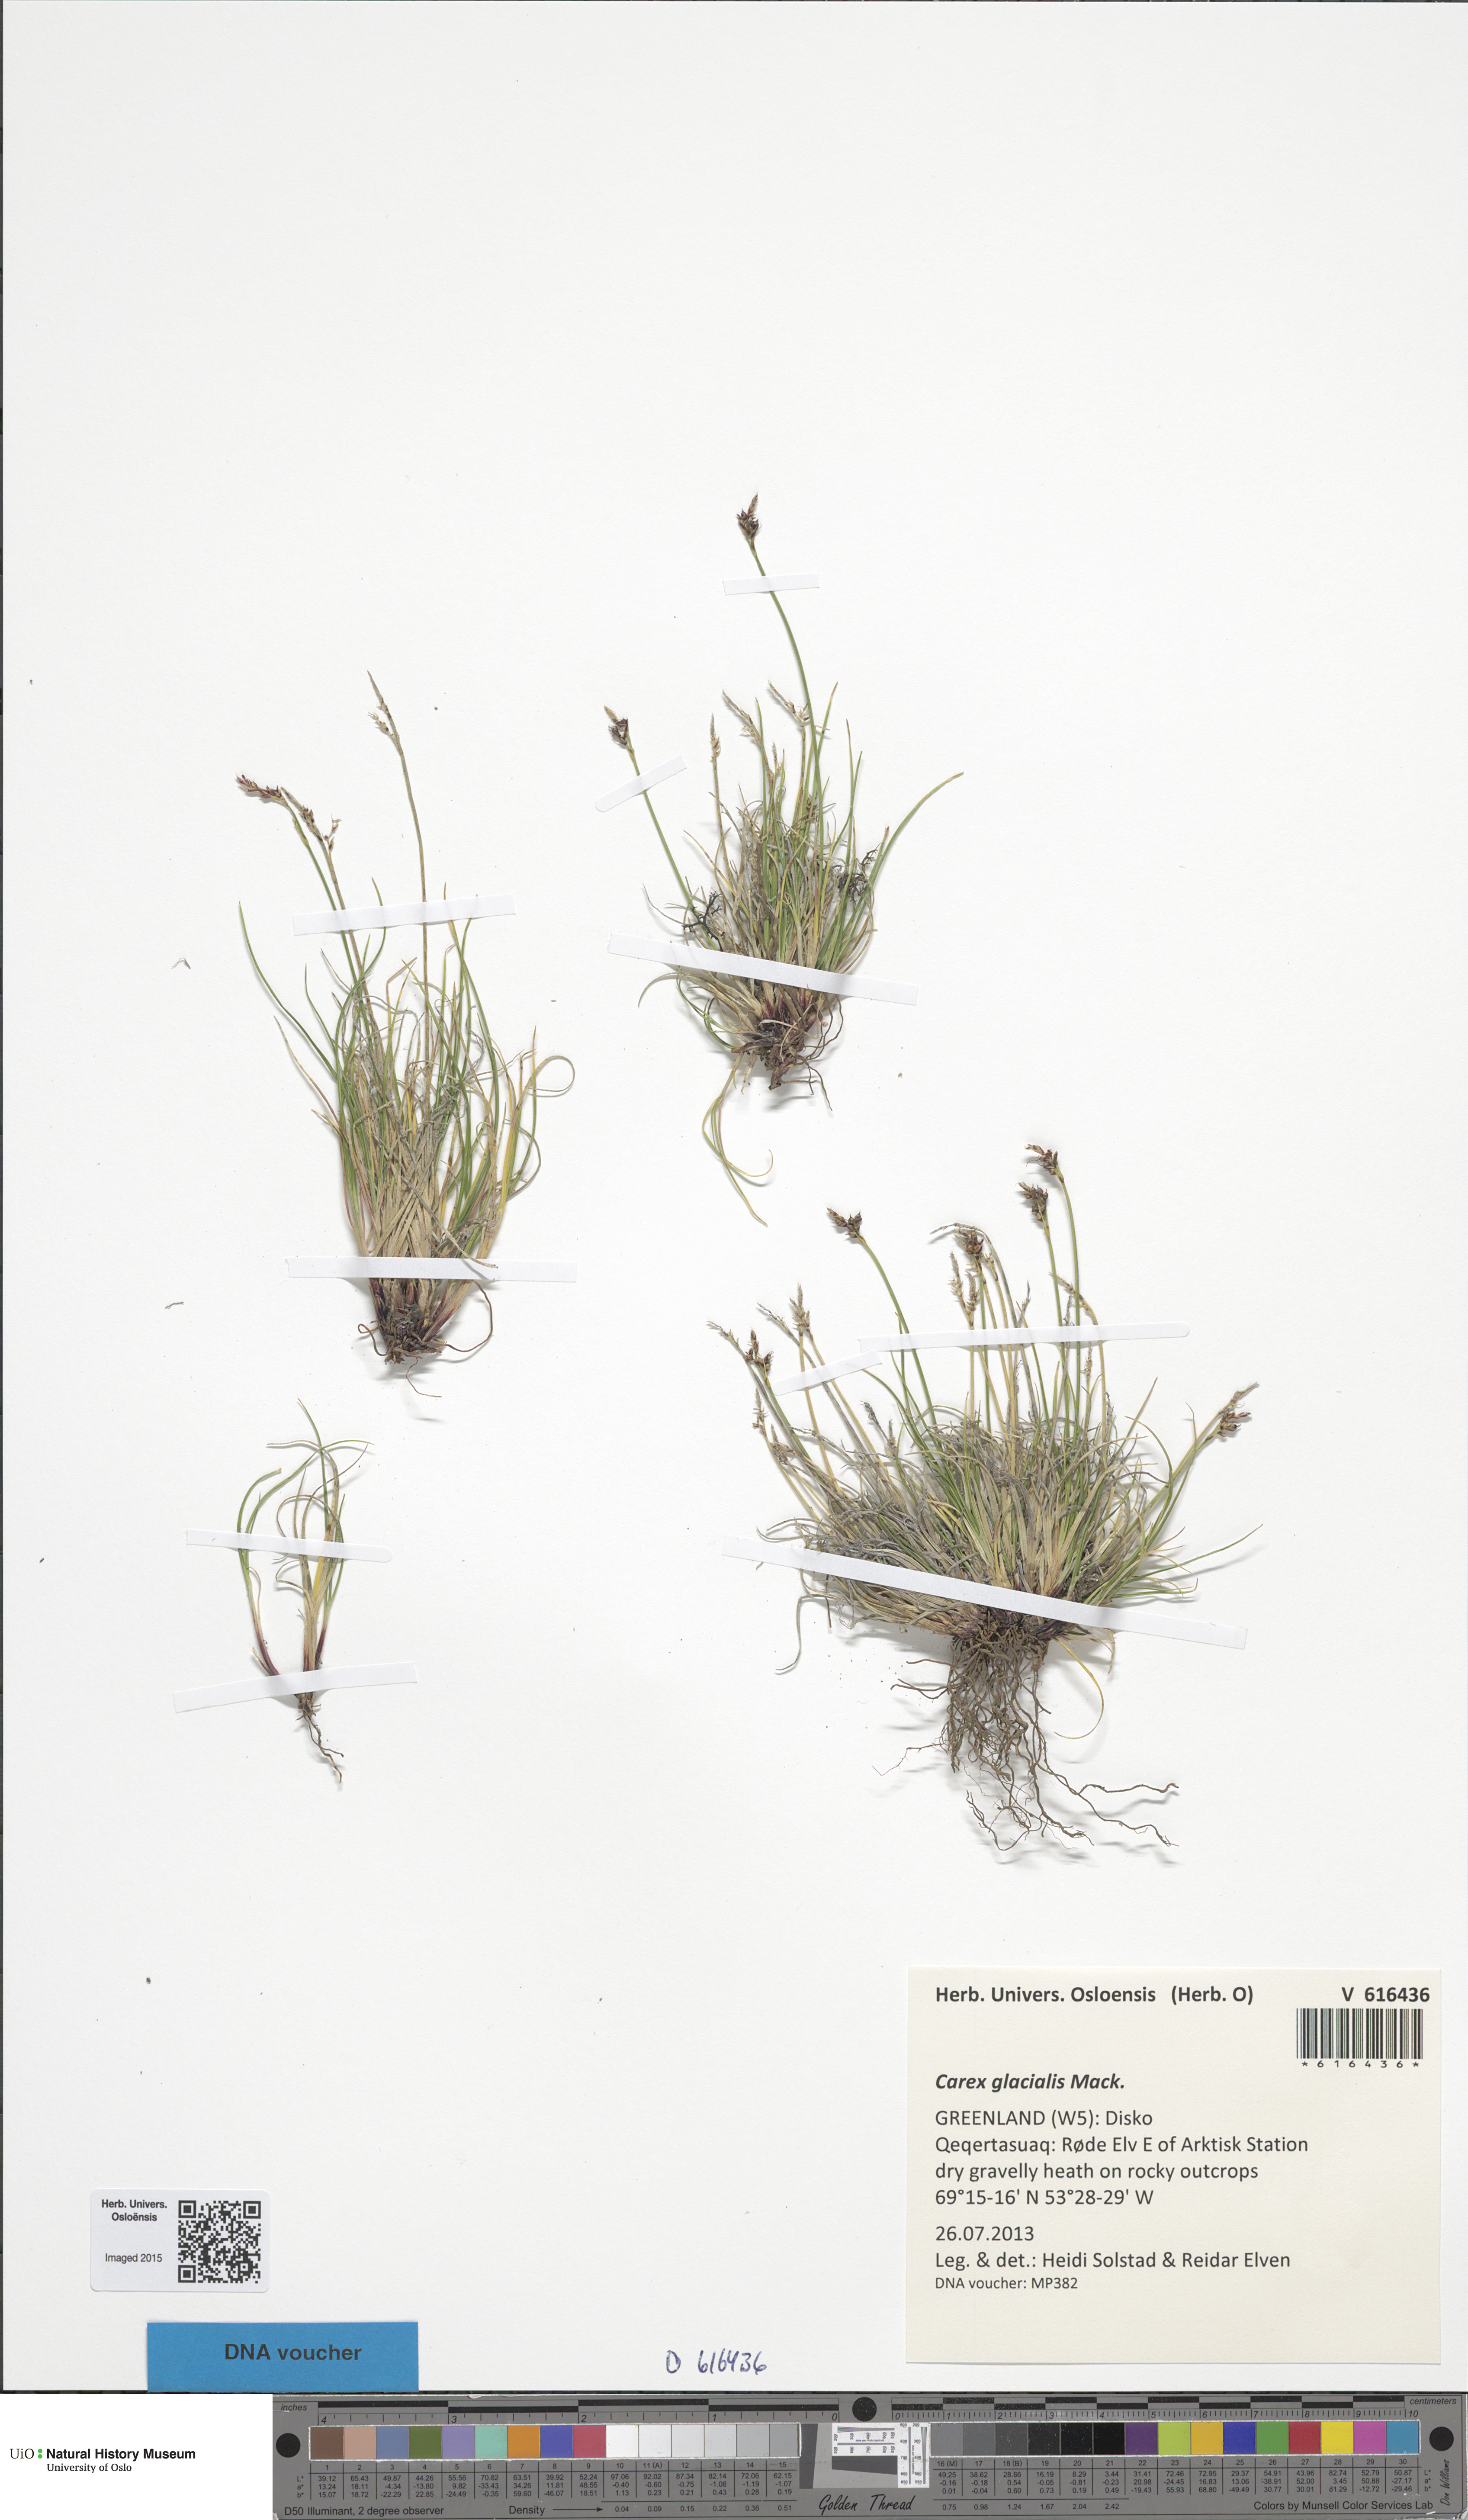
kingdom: Plantae
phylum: Tracheophyta
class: Liliopsida
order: Poales
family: Cyperaceae
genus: Carex
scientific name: Carex glacialis
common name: Newfoundland sedge
